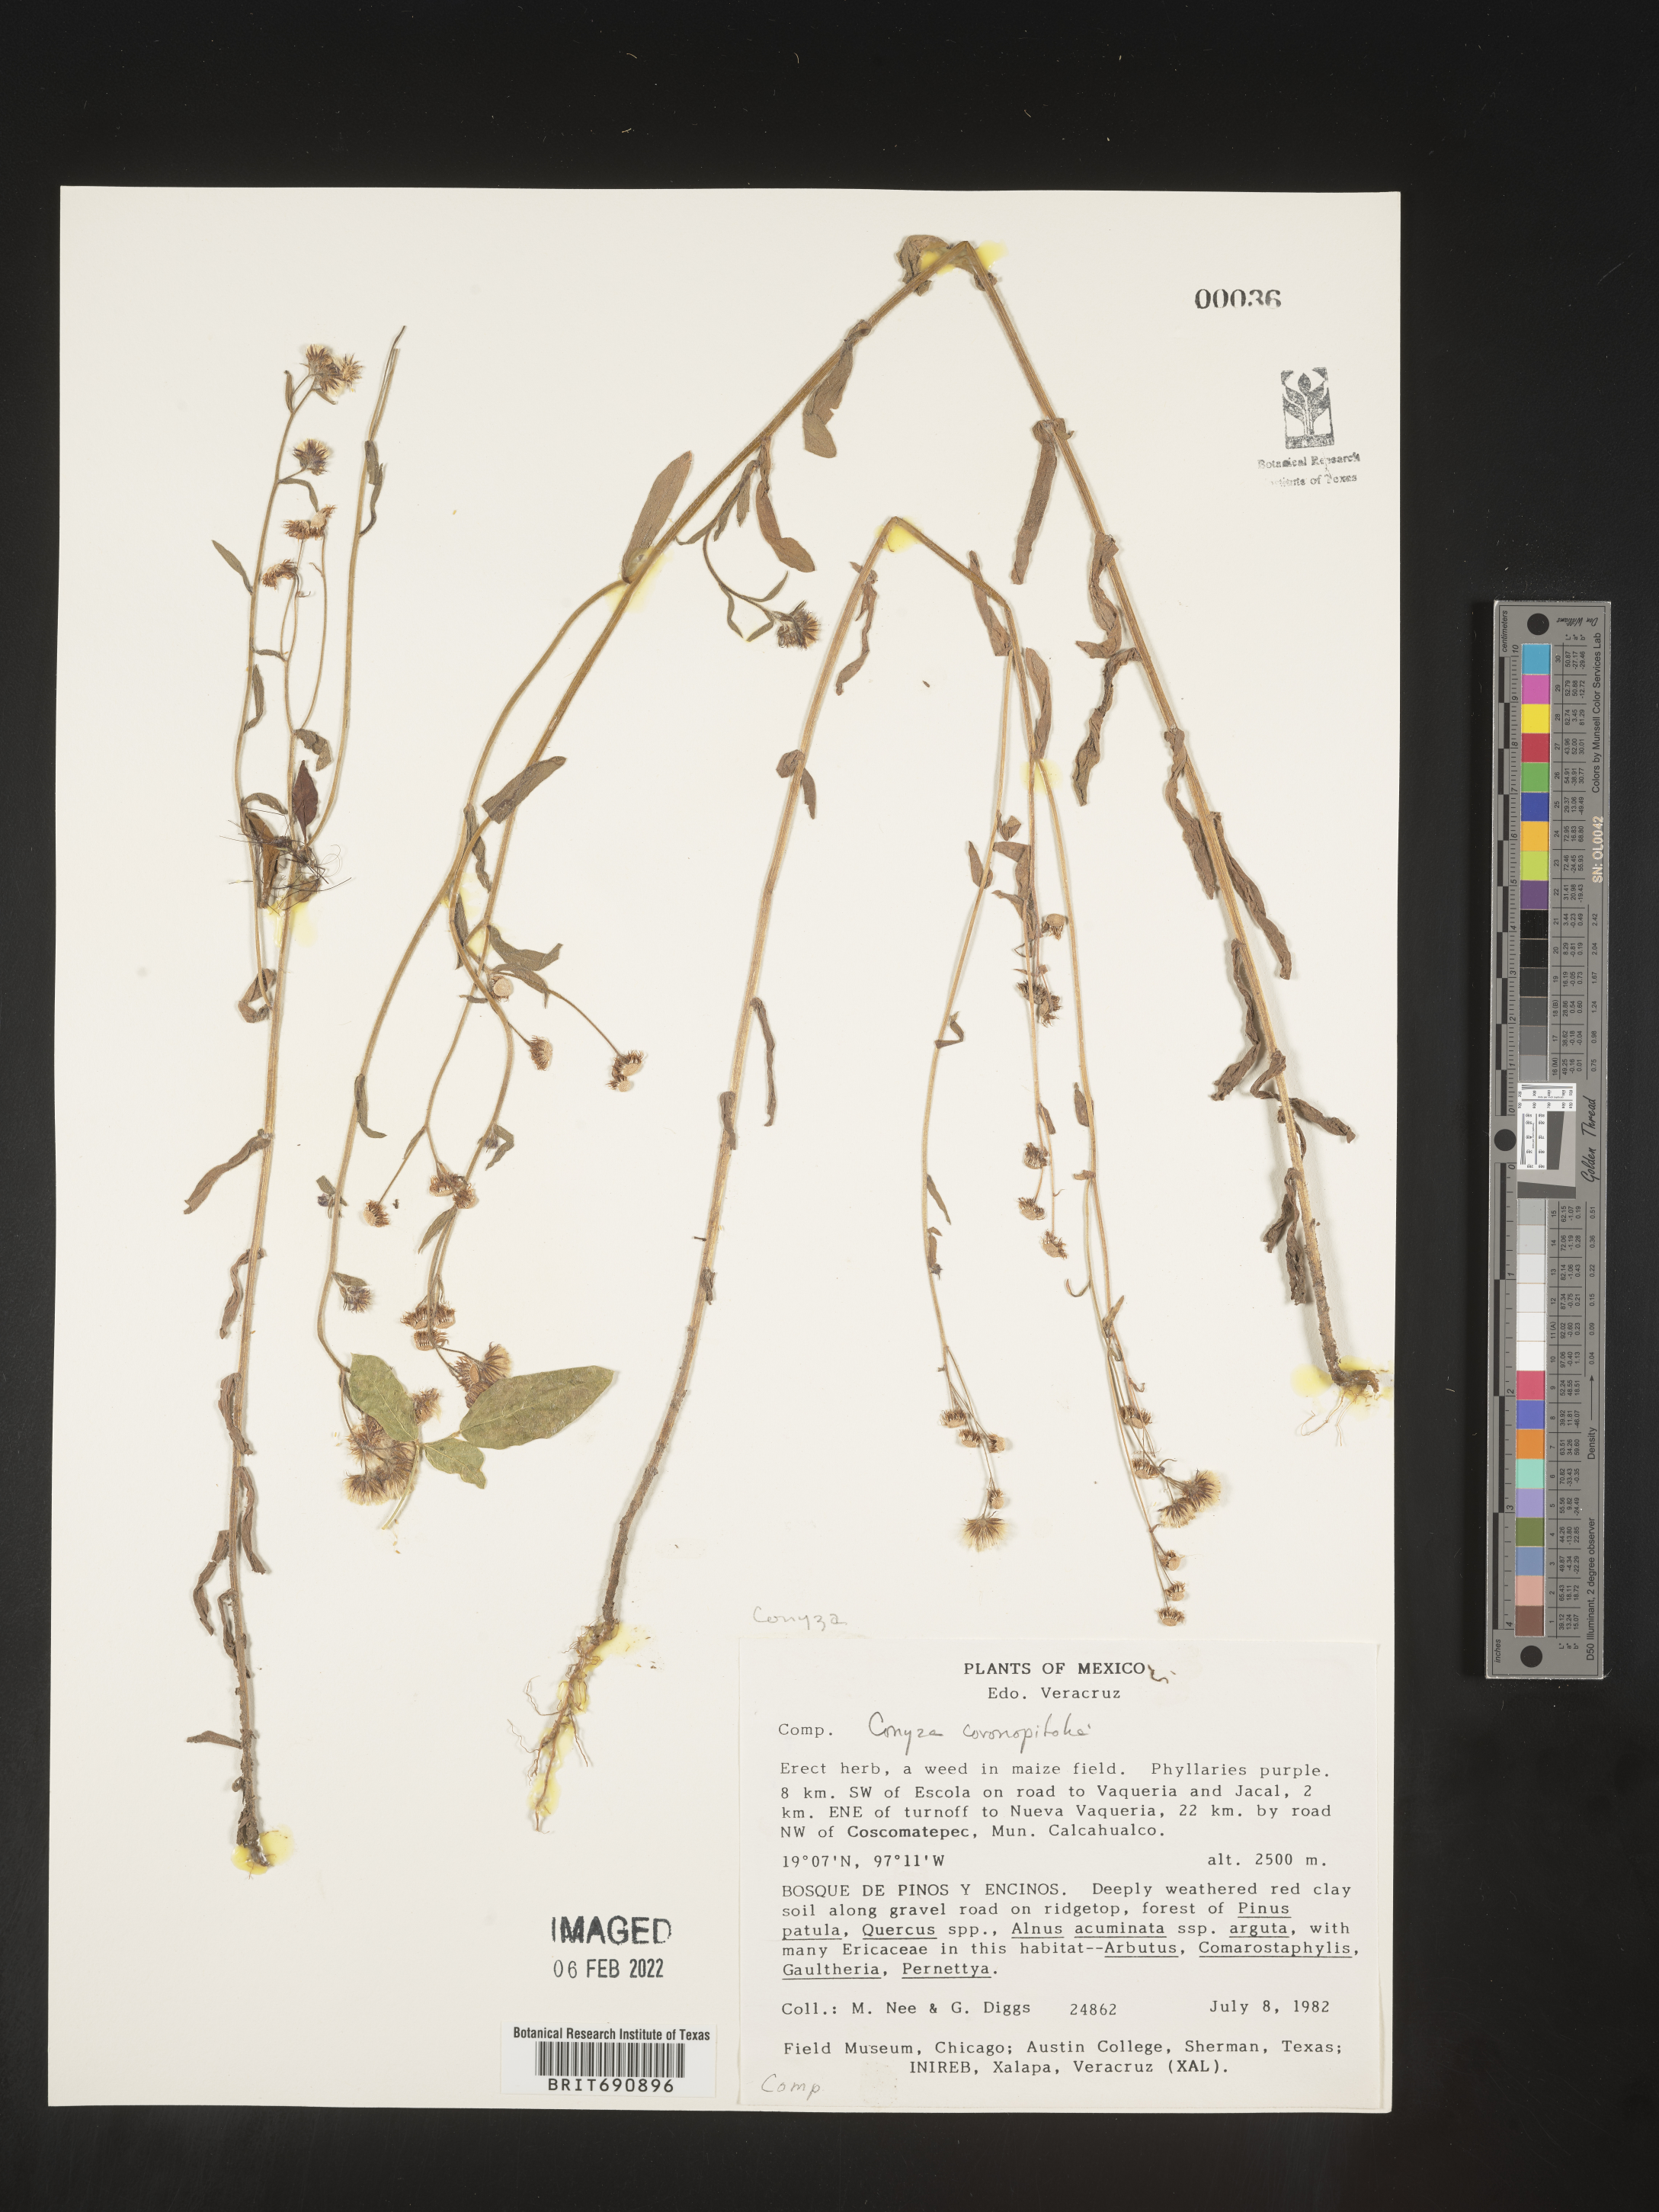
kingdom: Plantae
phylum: Tracheophyta
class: Magnoliopsida
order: Asterales
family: Asteraceae
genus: Erigeron
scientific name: Erigeron variifolius
